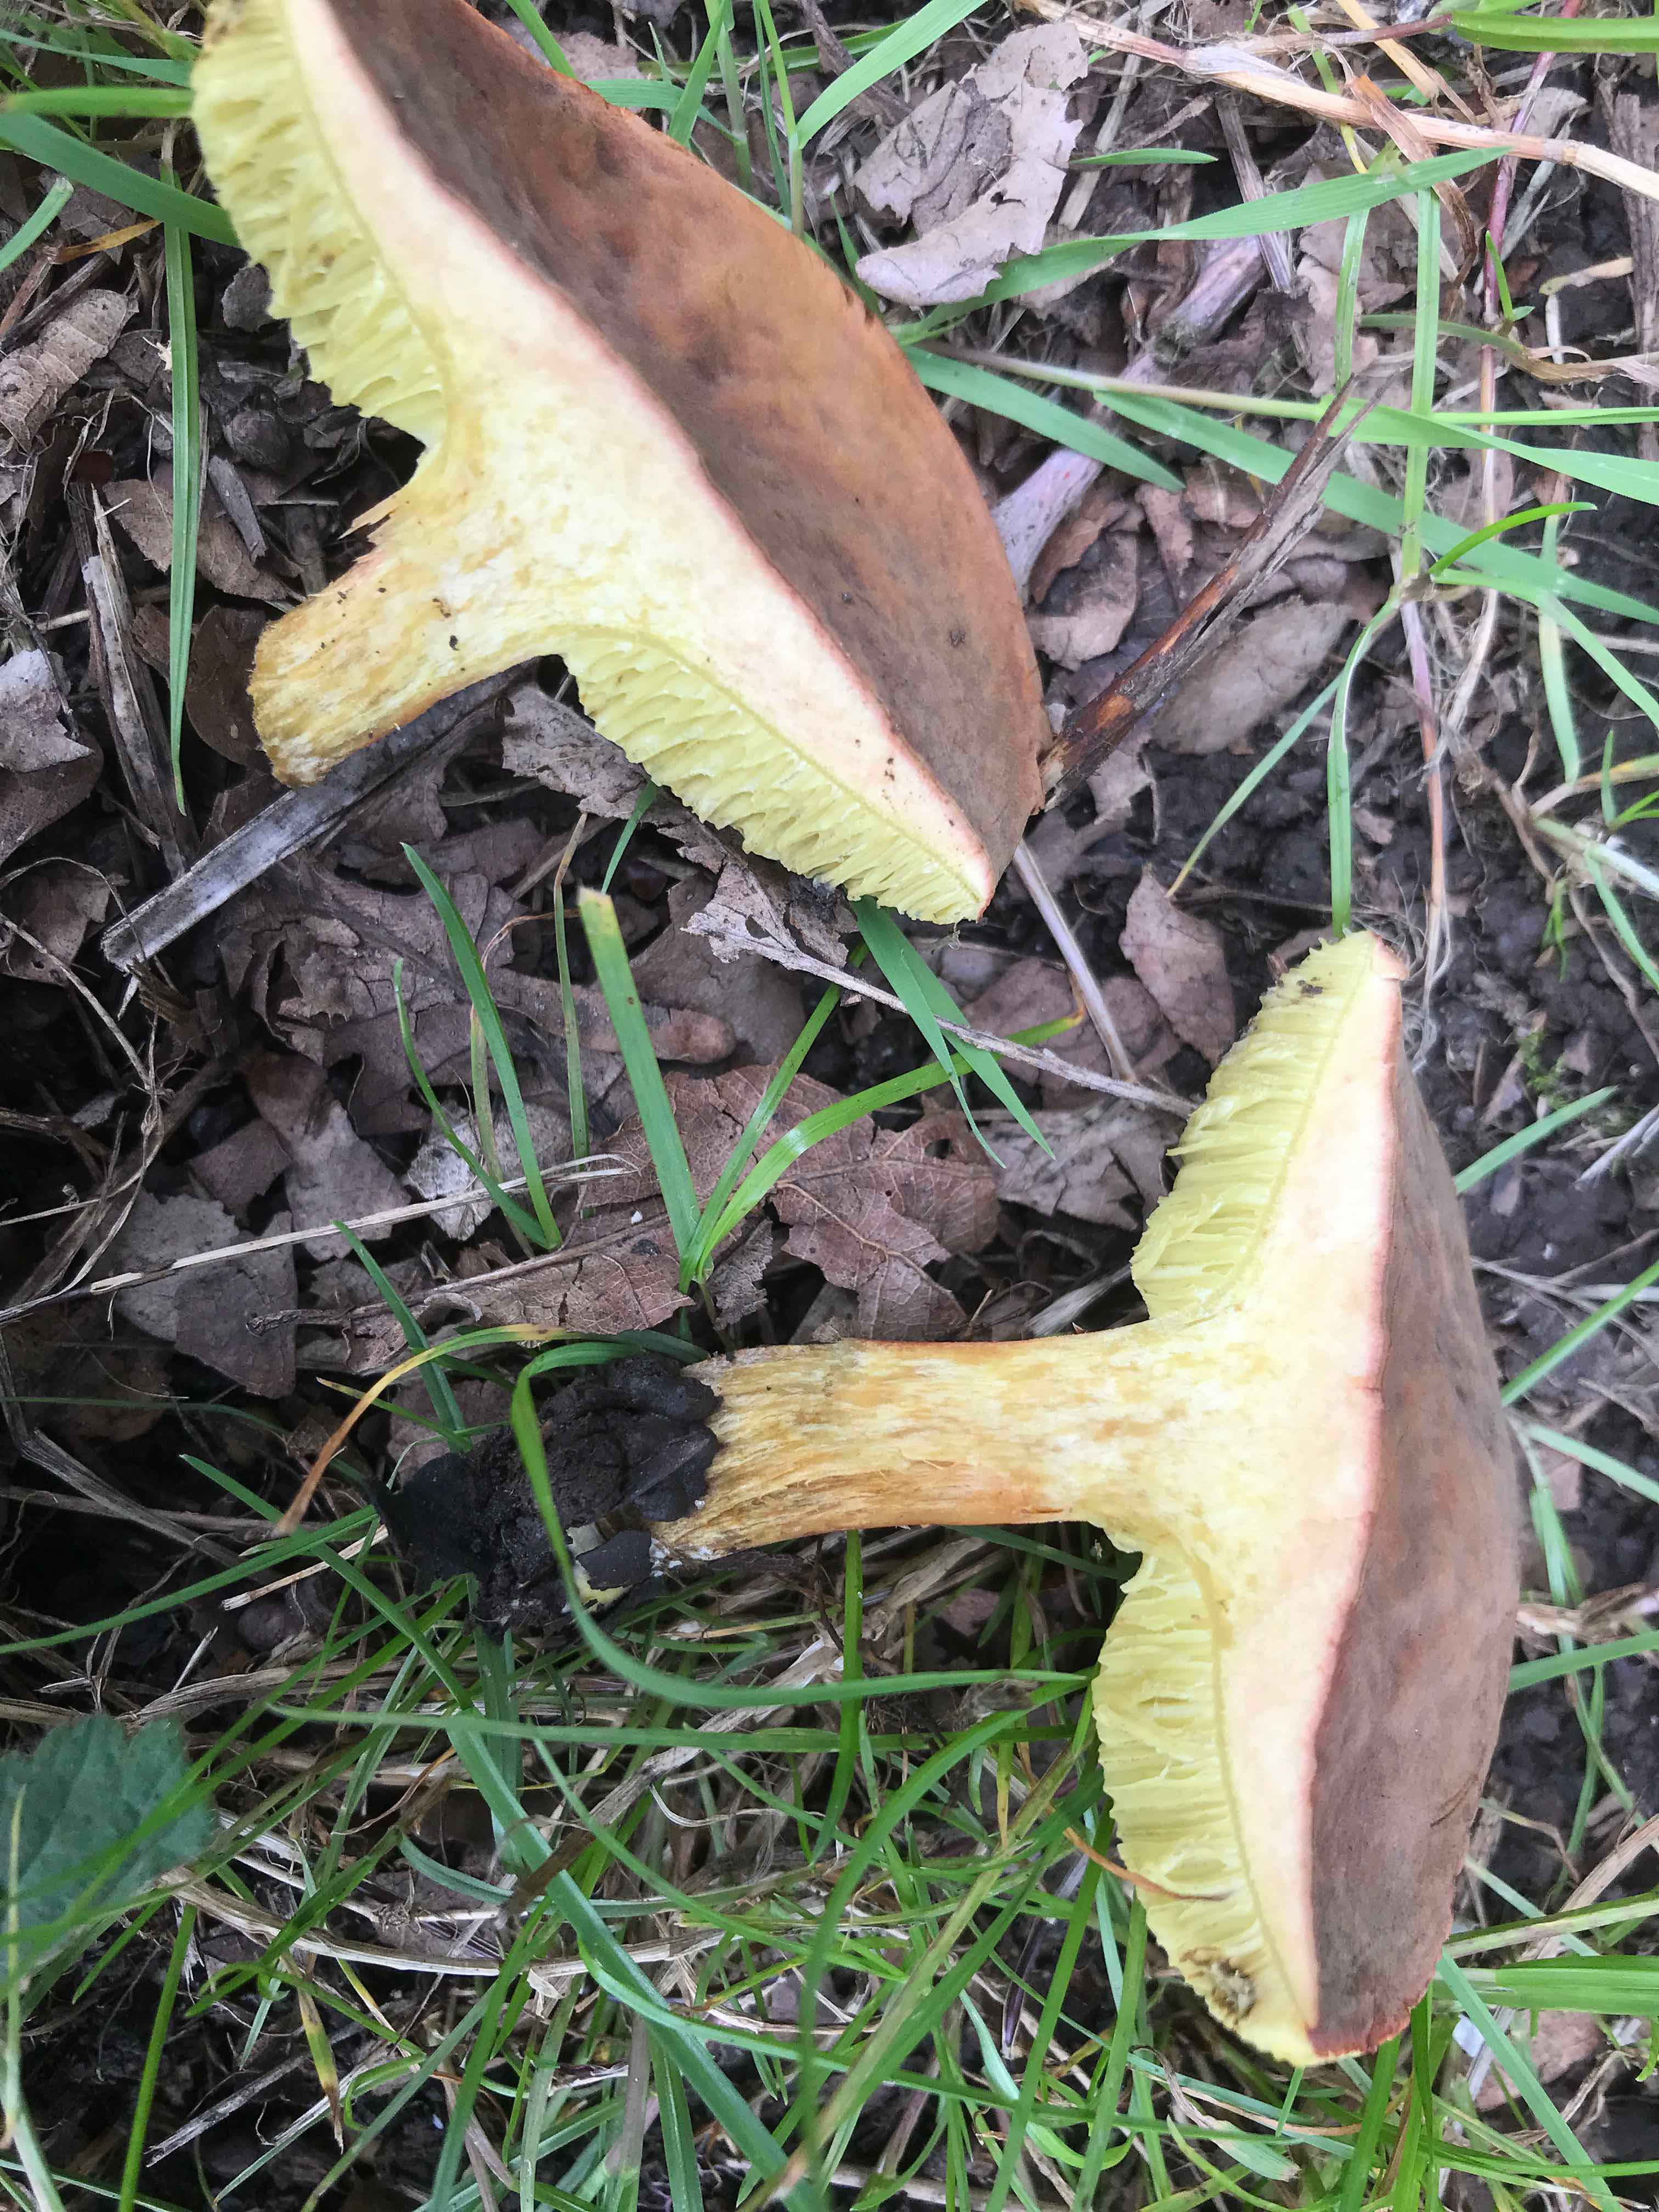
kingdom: Fungi
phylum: Basidiomycota
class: Agaricomycetes
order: Boletales
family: Boletaceae
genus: Hortiboletus
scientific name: Hortiboletus engelii
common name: fersken-rørhat
